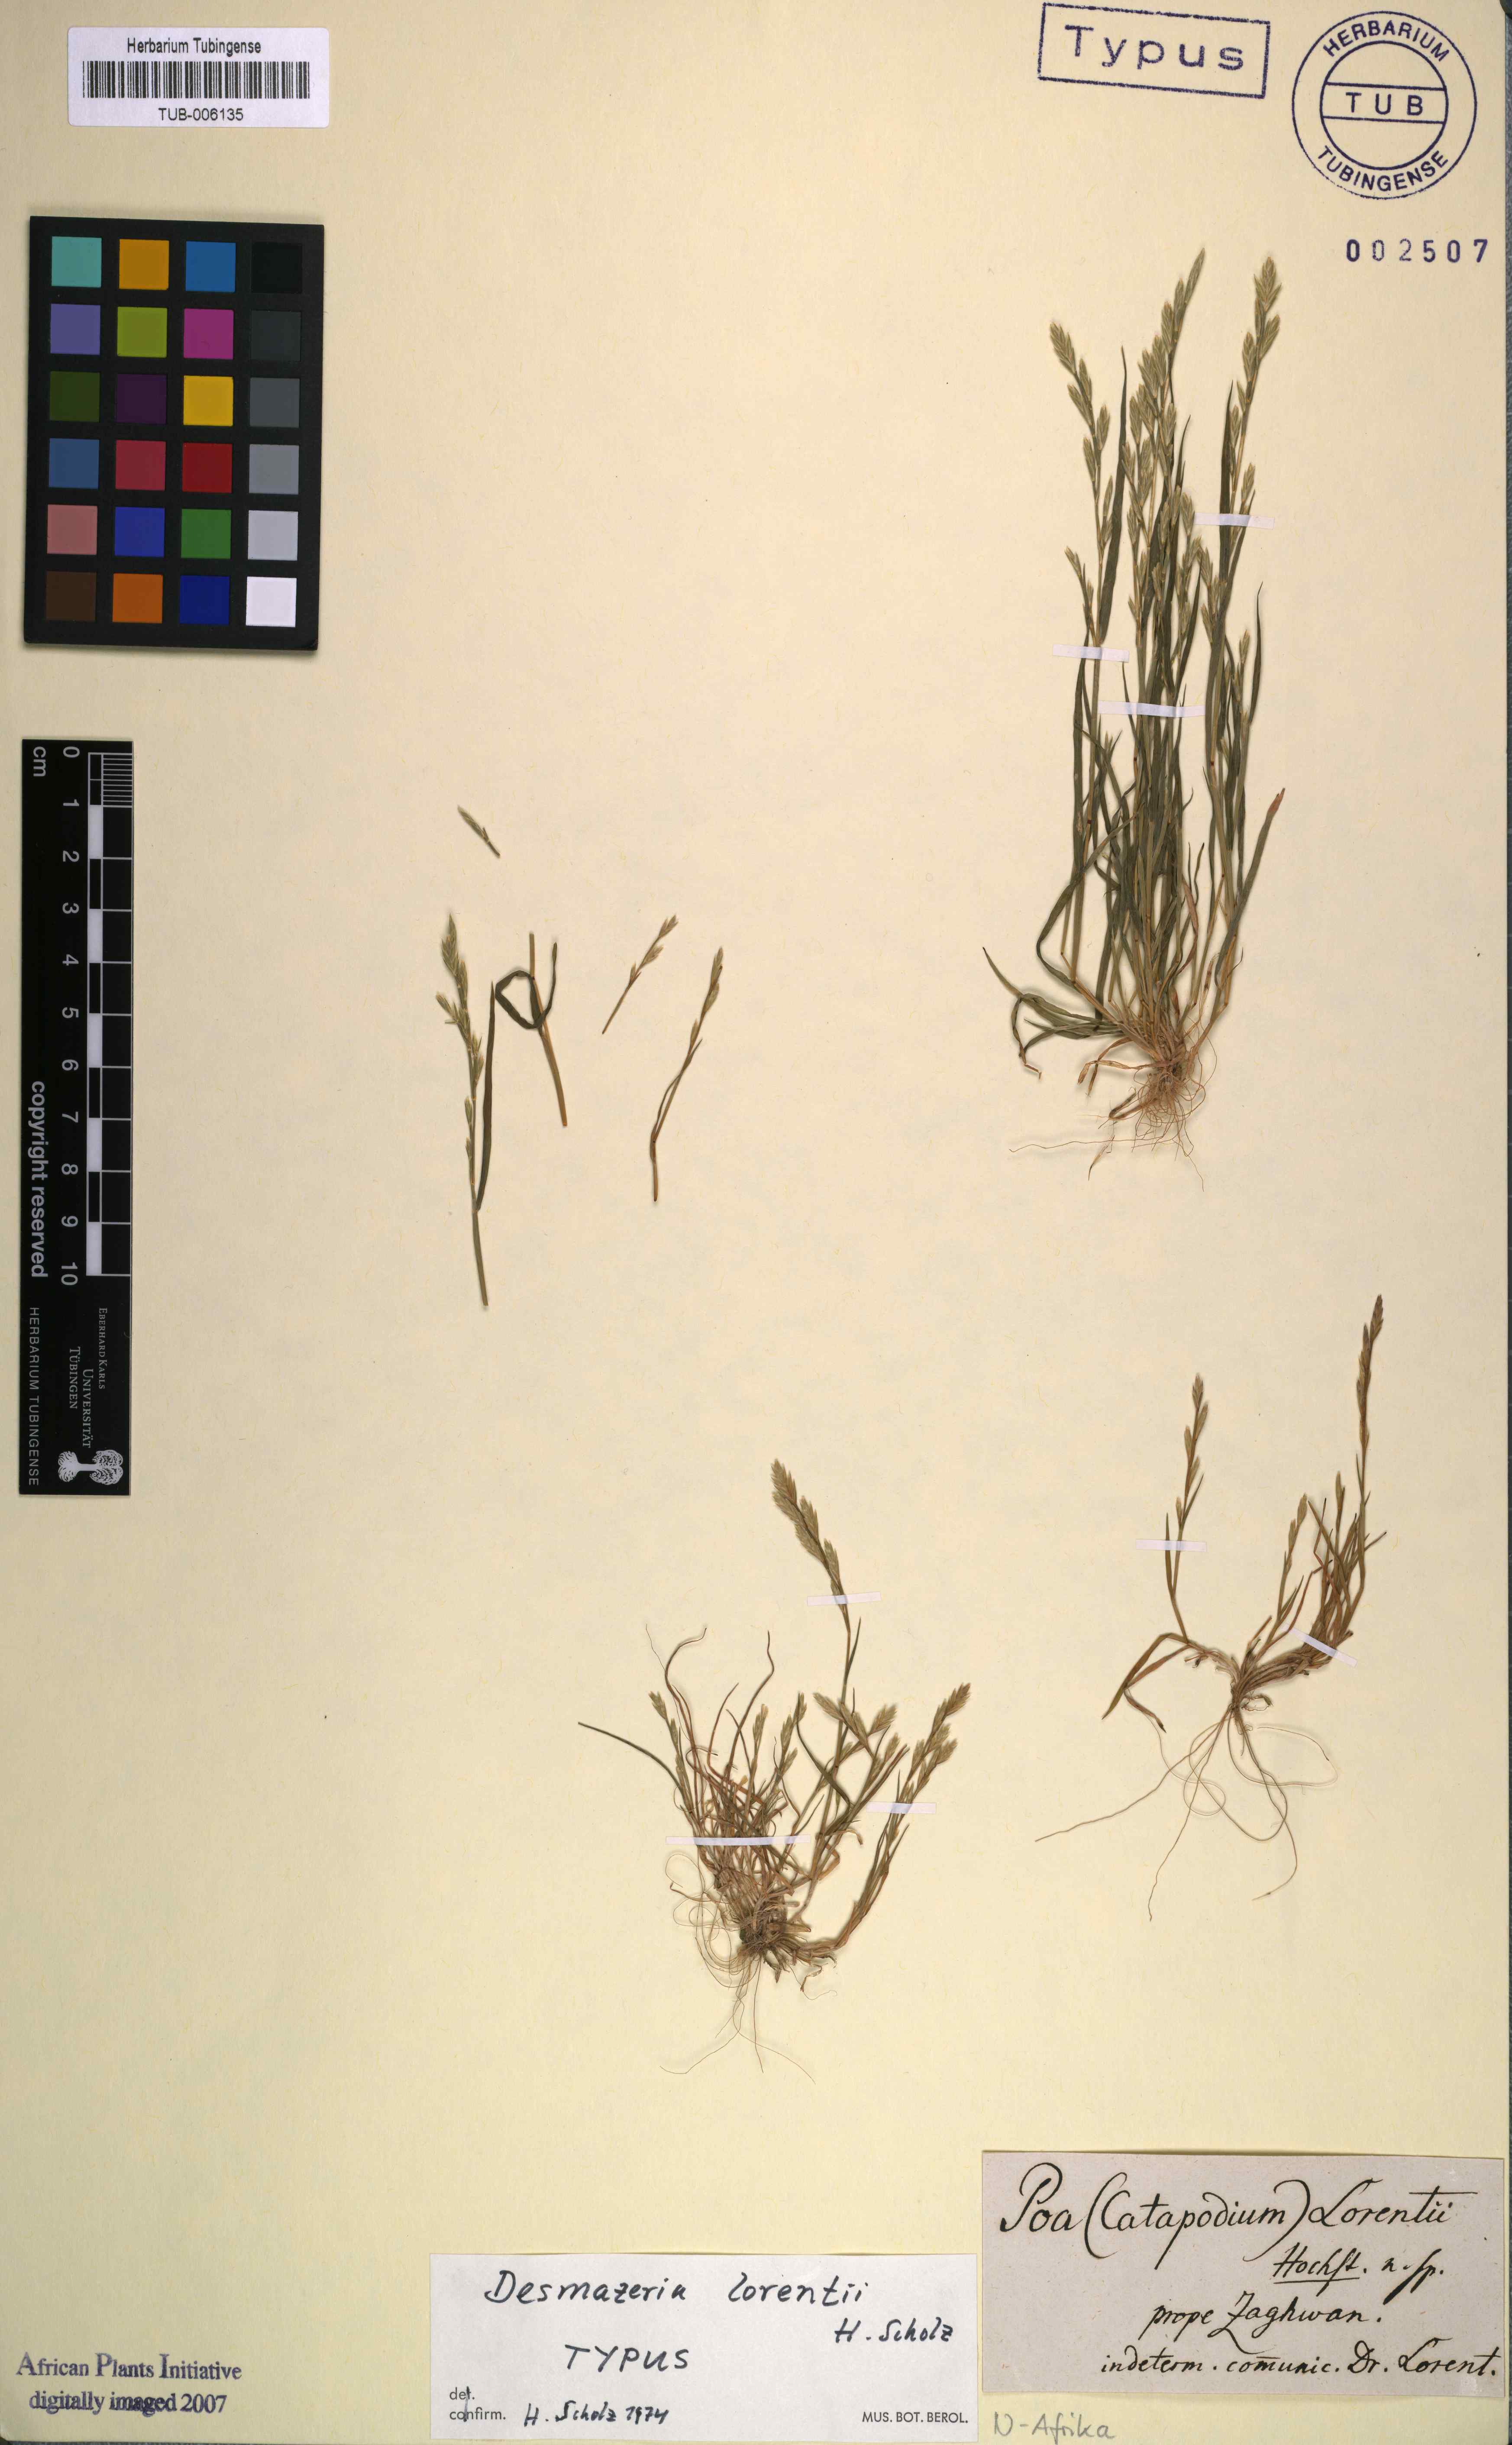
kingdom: Plantae
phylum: Tracheophyta
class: Liliopsida
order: Poales
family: Poaceae
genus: Desmazeria
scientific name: Desmazeria lorentii
